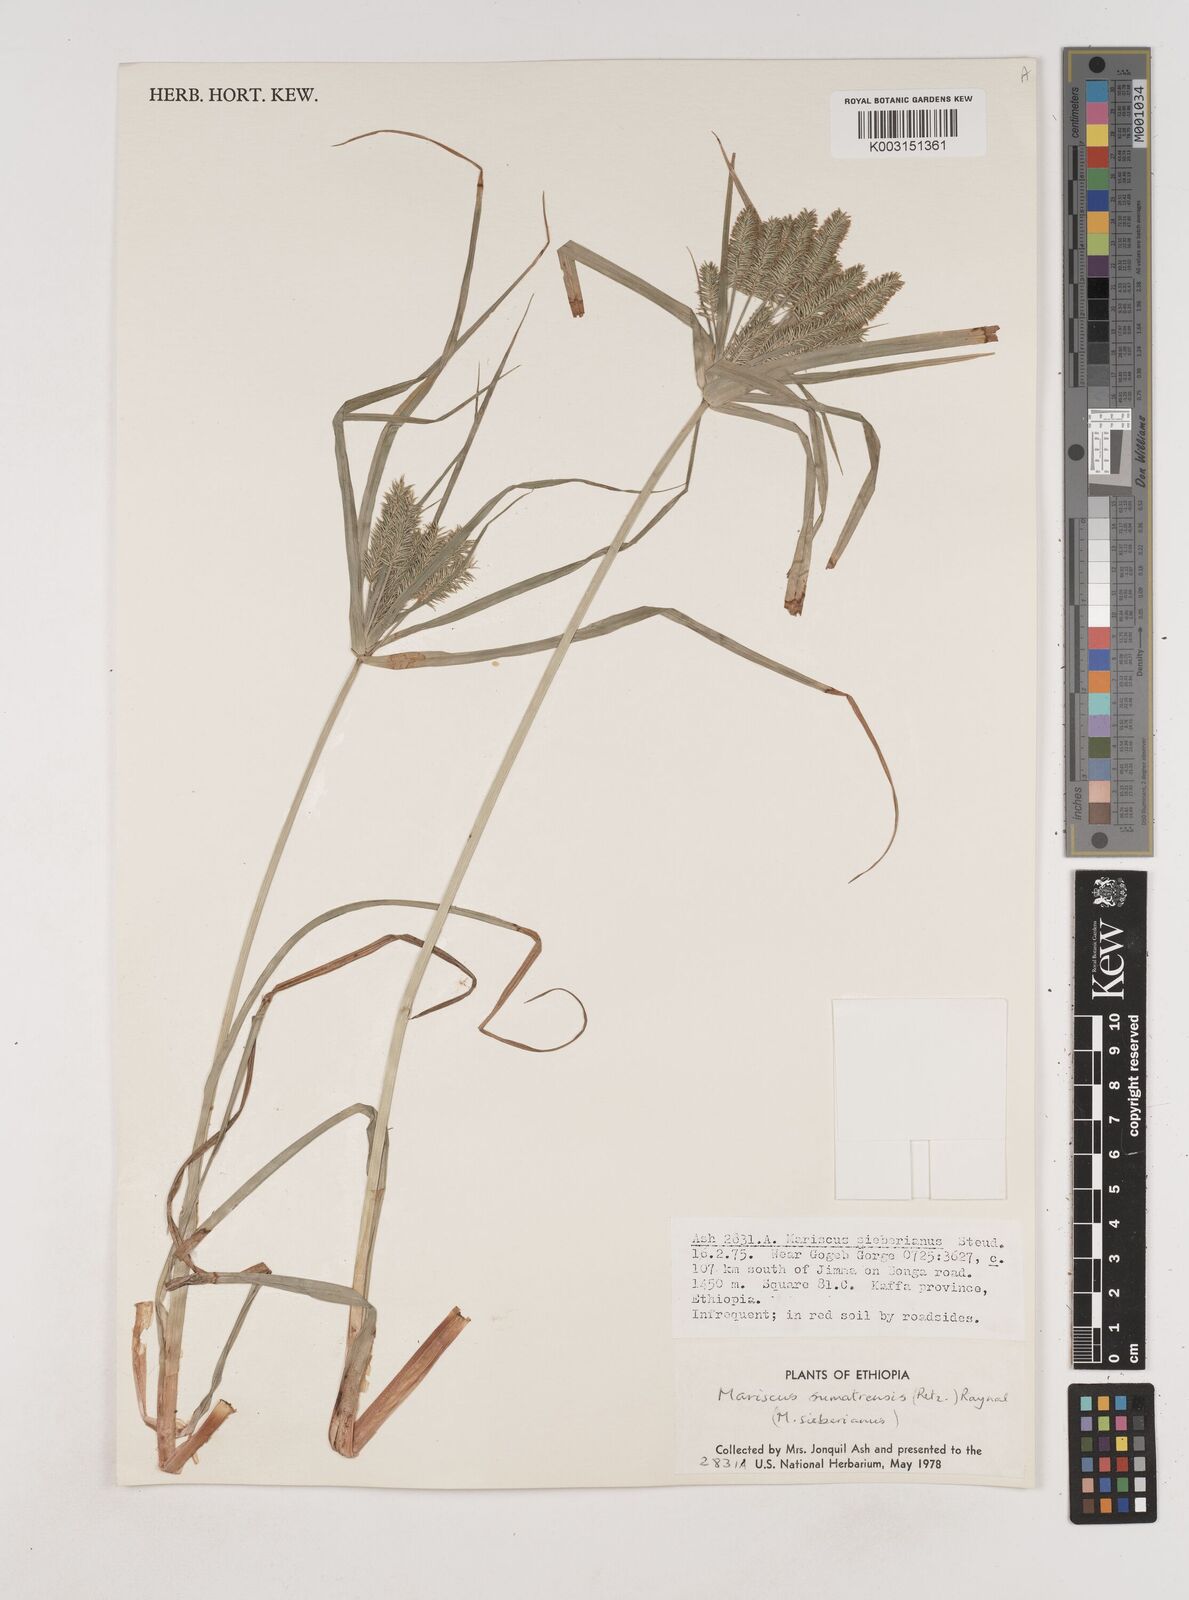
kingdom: Plantae
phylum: Tracheophyta
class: Liliopsida
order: Poales
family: Cyperaceae
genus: Cyperus
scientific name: Cyperus cyperoides
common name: Pacific island flat sedge
